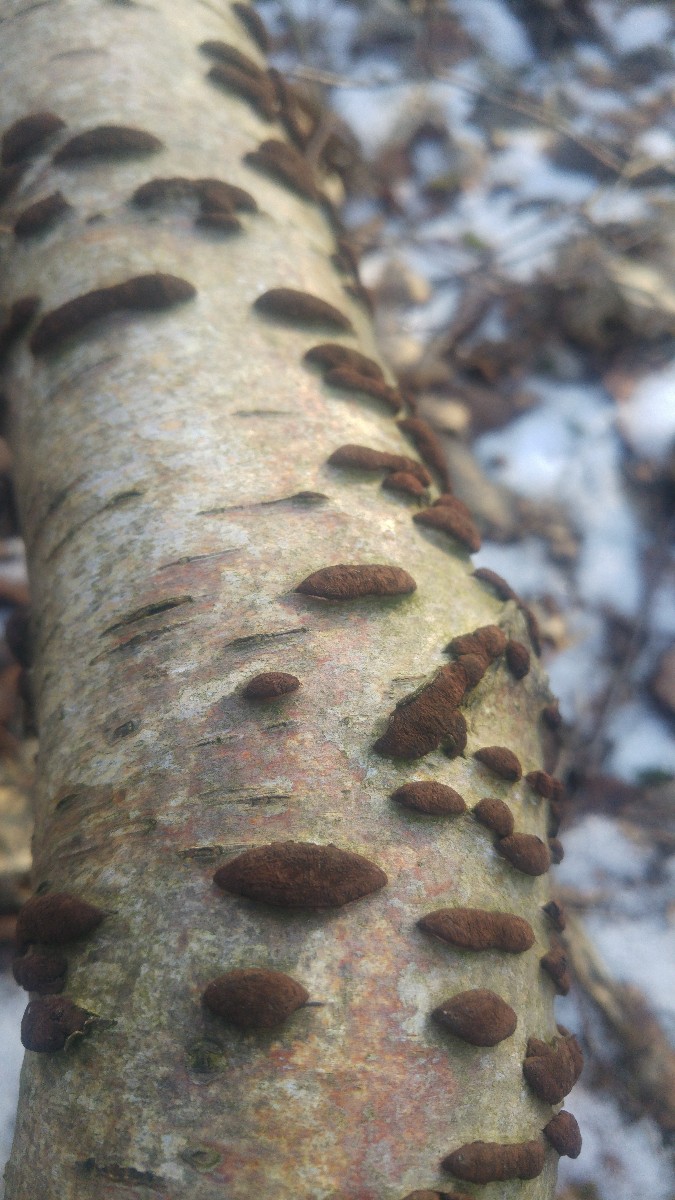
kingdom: Fungi
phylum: Ascomycota
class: Sordariomycetes
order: Xylariales
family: Hypoxylaceae
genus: Jackrogersella
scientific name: Jackrogersella multiformis
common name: foranderlig kulbær
